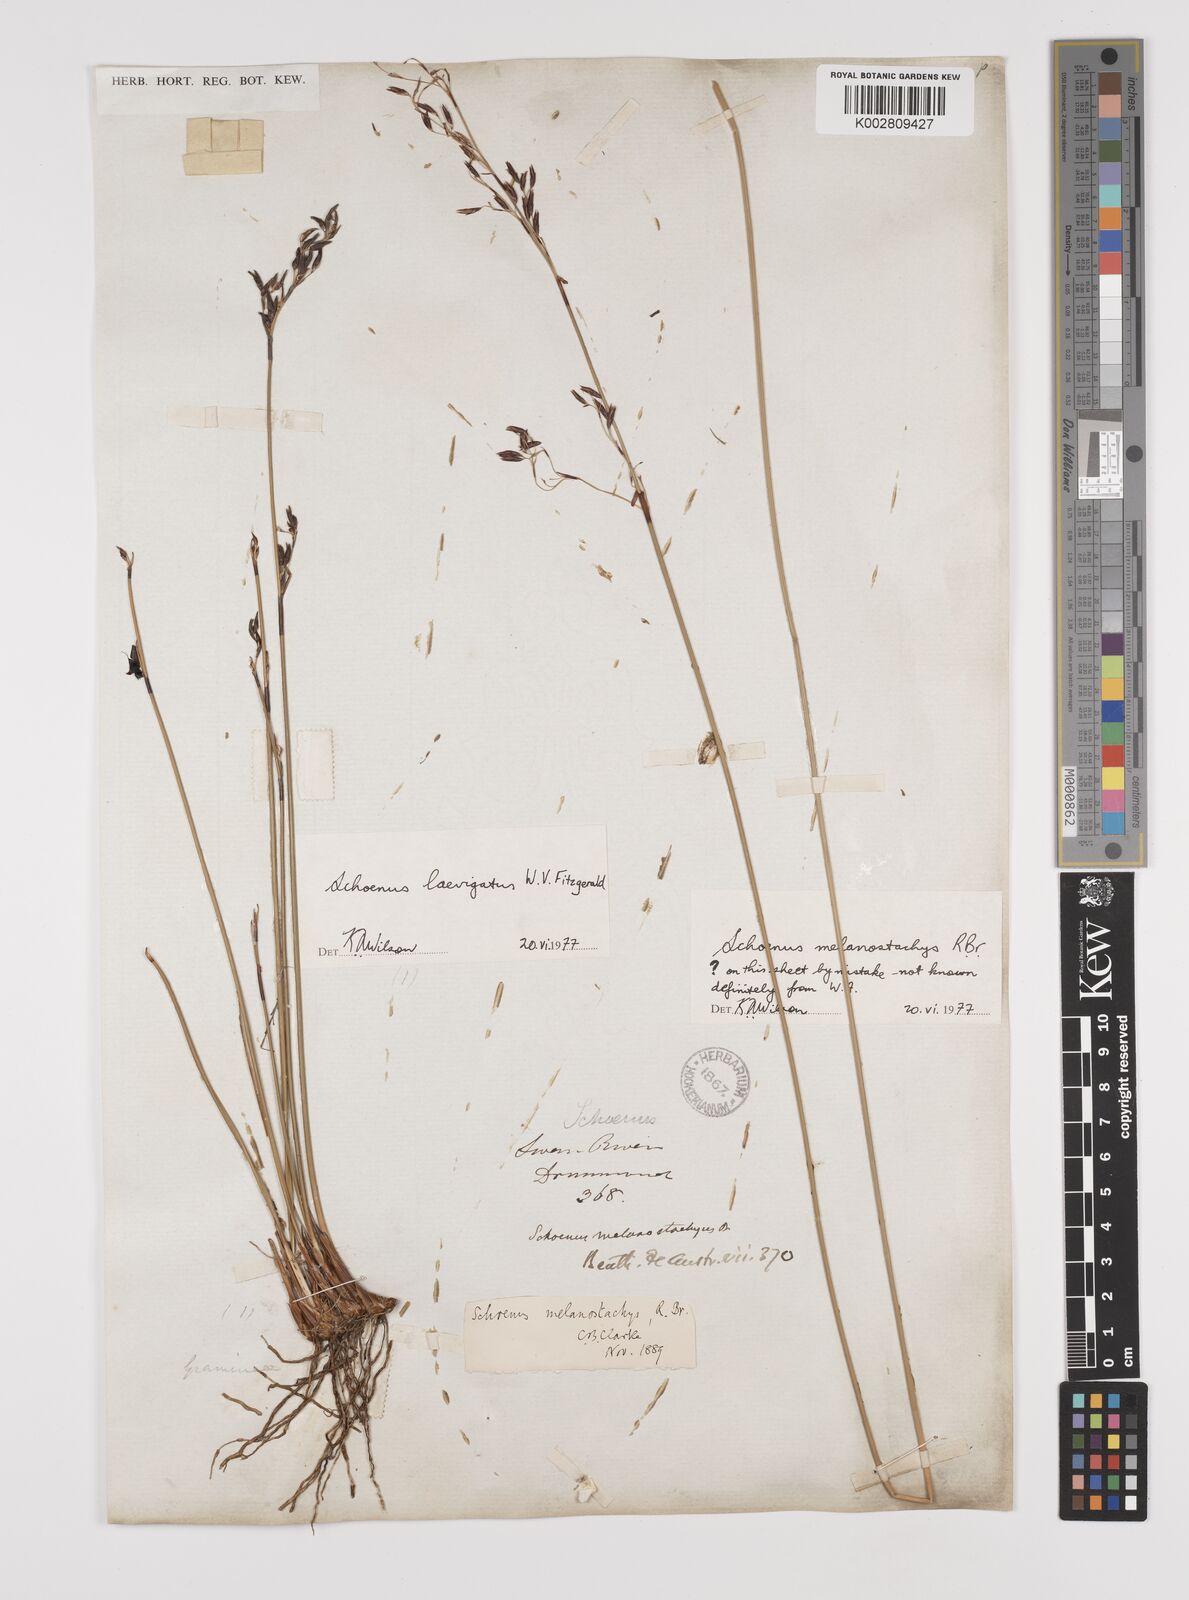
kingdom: Plantae
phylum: Tracheophyta
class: Liliopsida
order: Poales
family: Cyperaceae
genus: Schoenus
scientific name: Schoenus laevigatus
